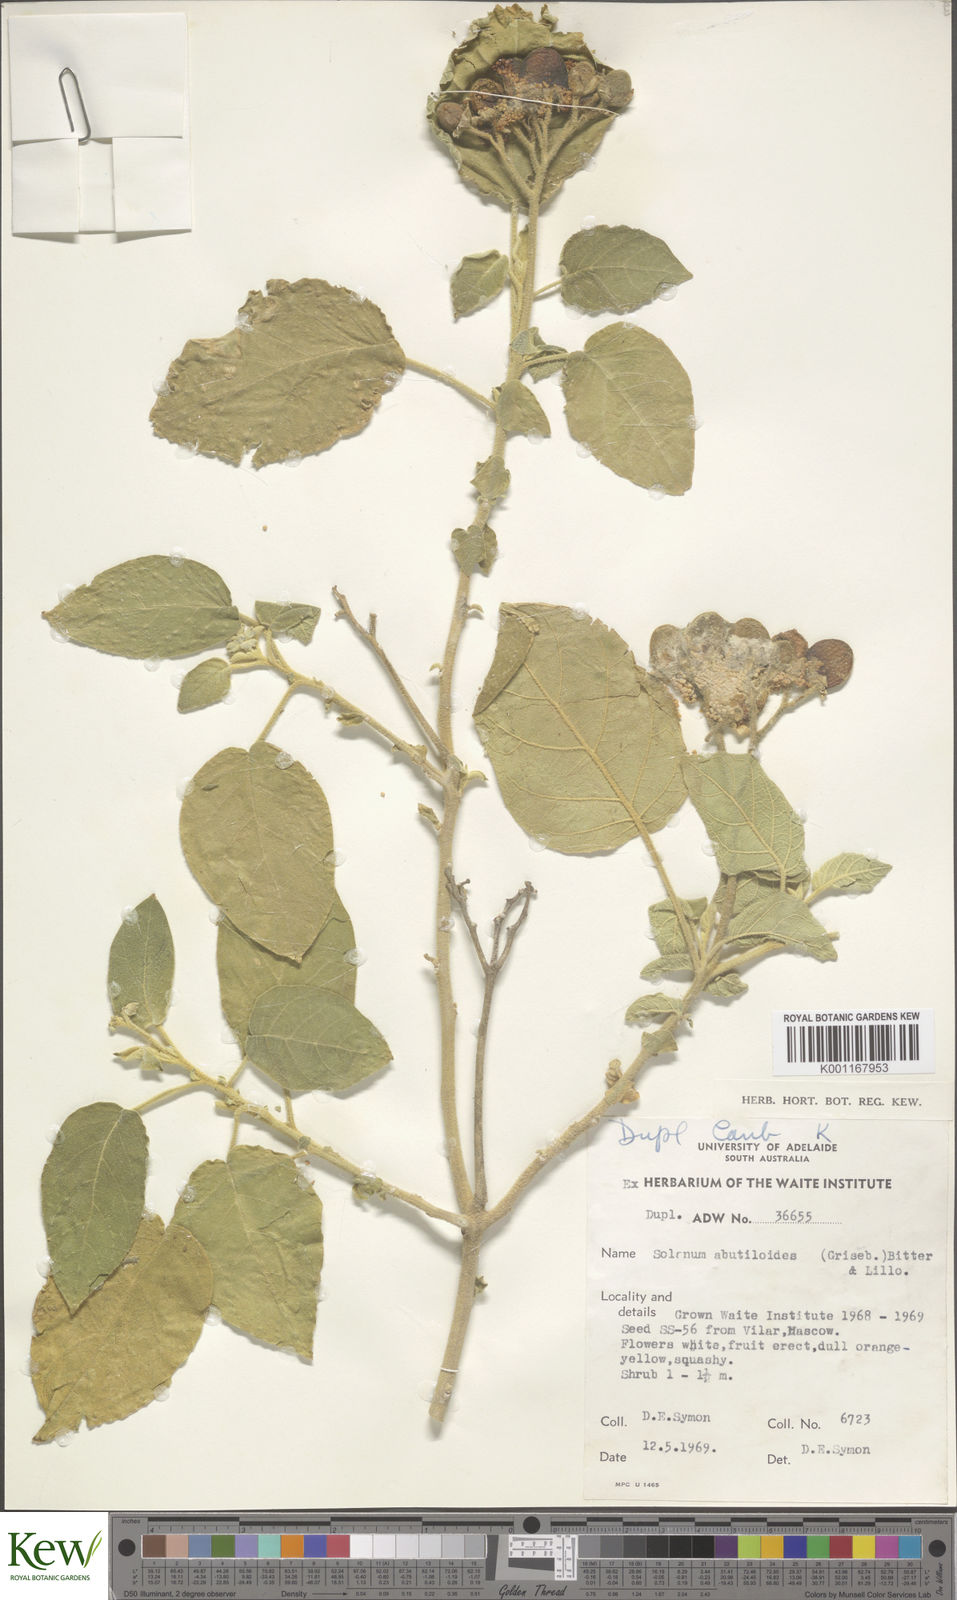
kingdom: Plantae
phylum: Tracheophyta
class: Magnoliopsida
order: Solanales
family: Solanaceae
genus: Solanum
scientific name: Solanum abutiloides
